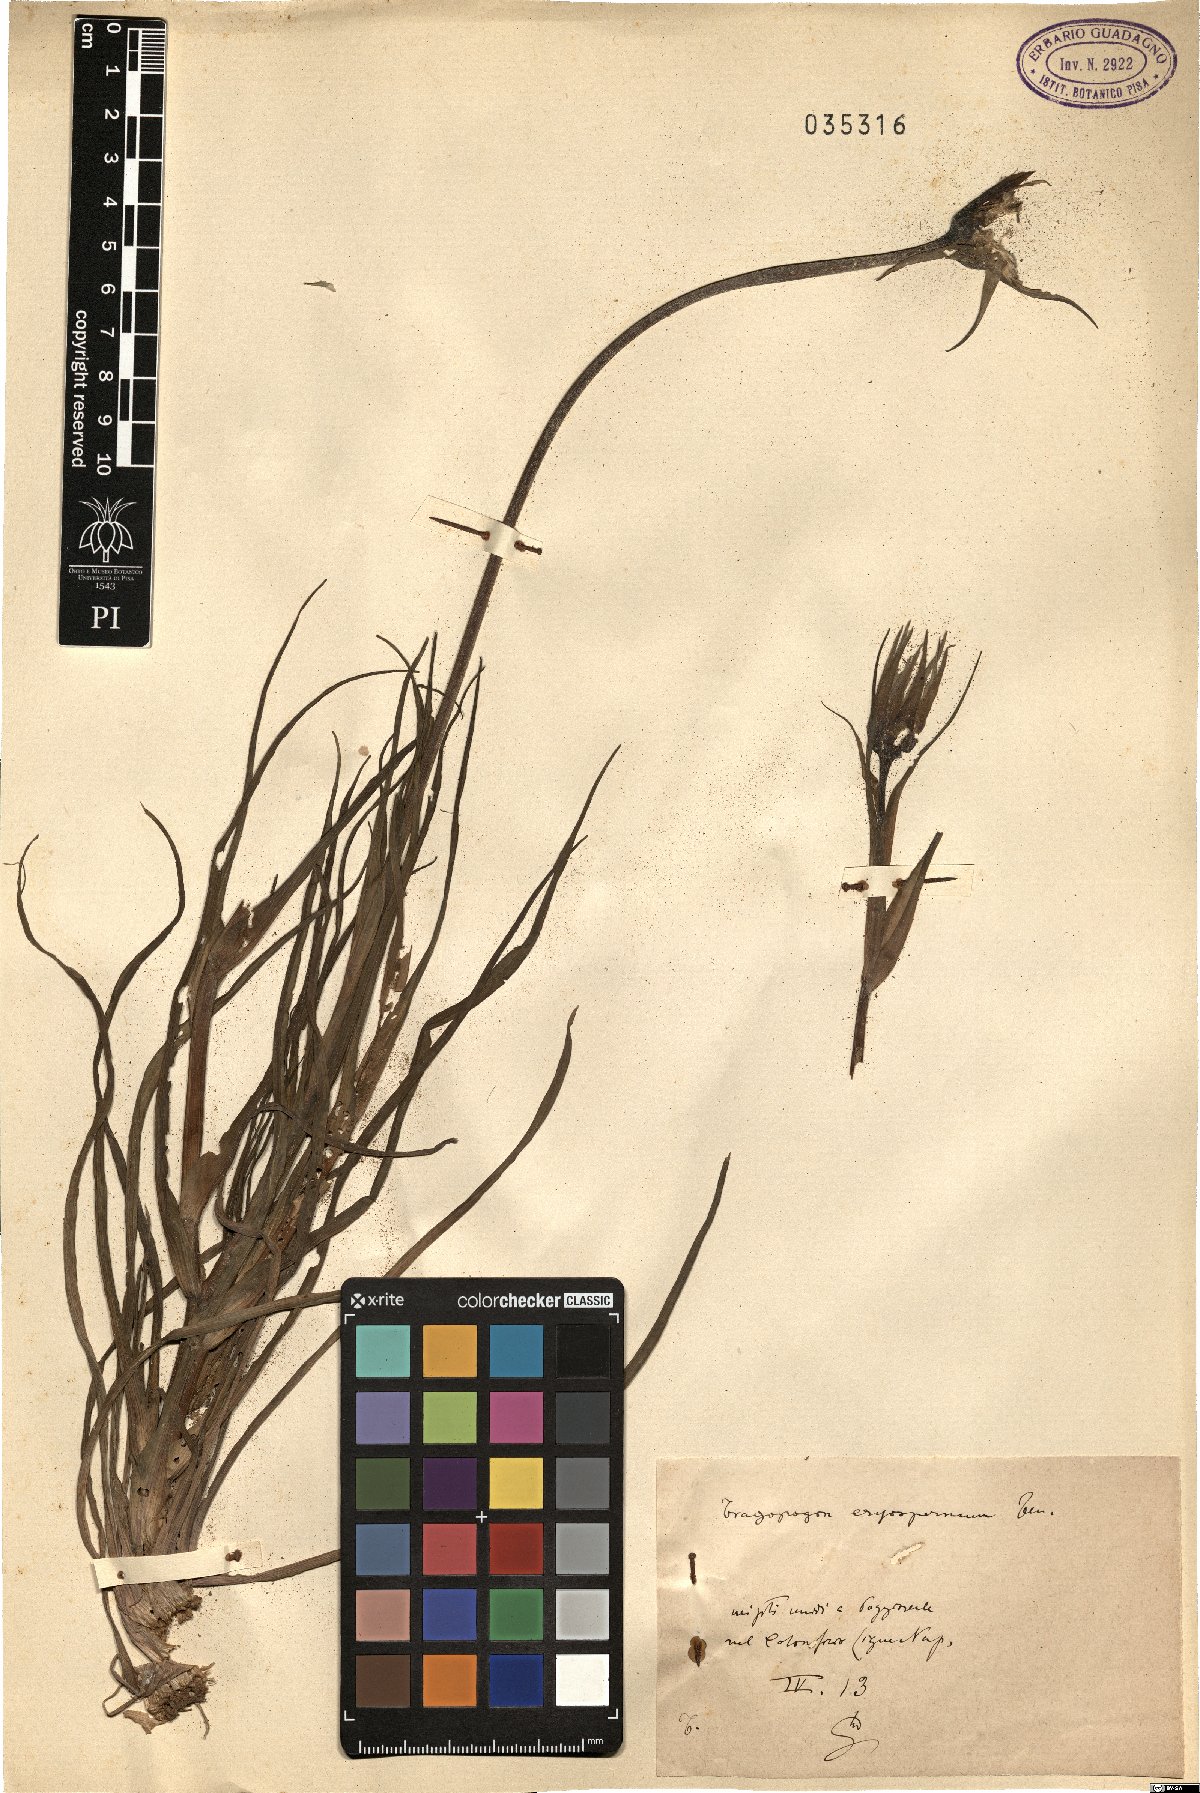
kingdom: Plantae
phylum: Tracheophyta
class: Magnoliopsida
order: Asterales
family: Asteraceae
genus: Tragopogon
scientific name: Tragopogon porrifolius
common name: Salsify
